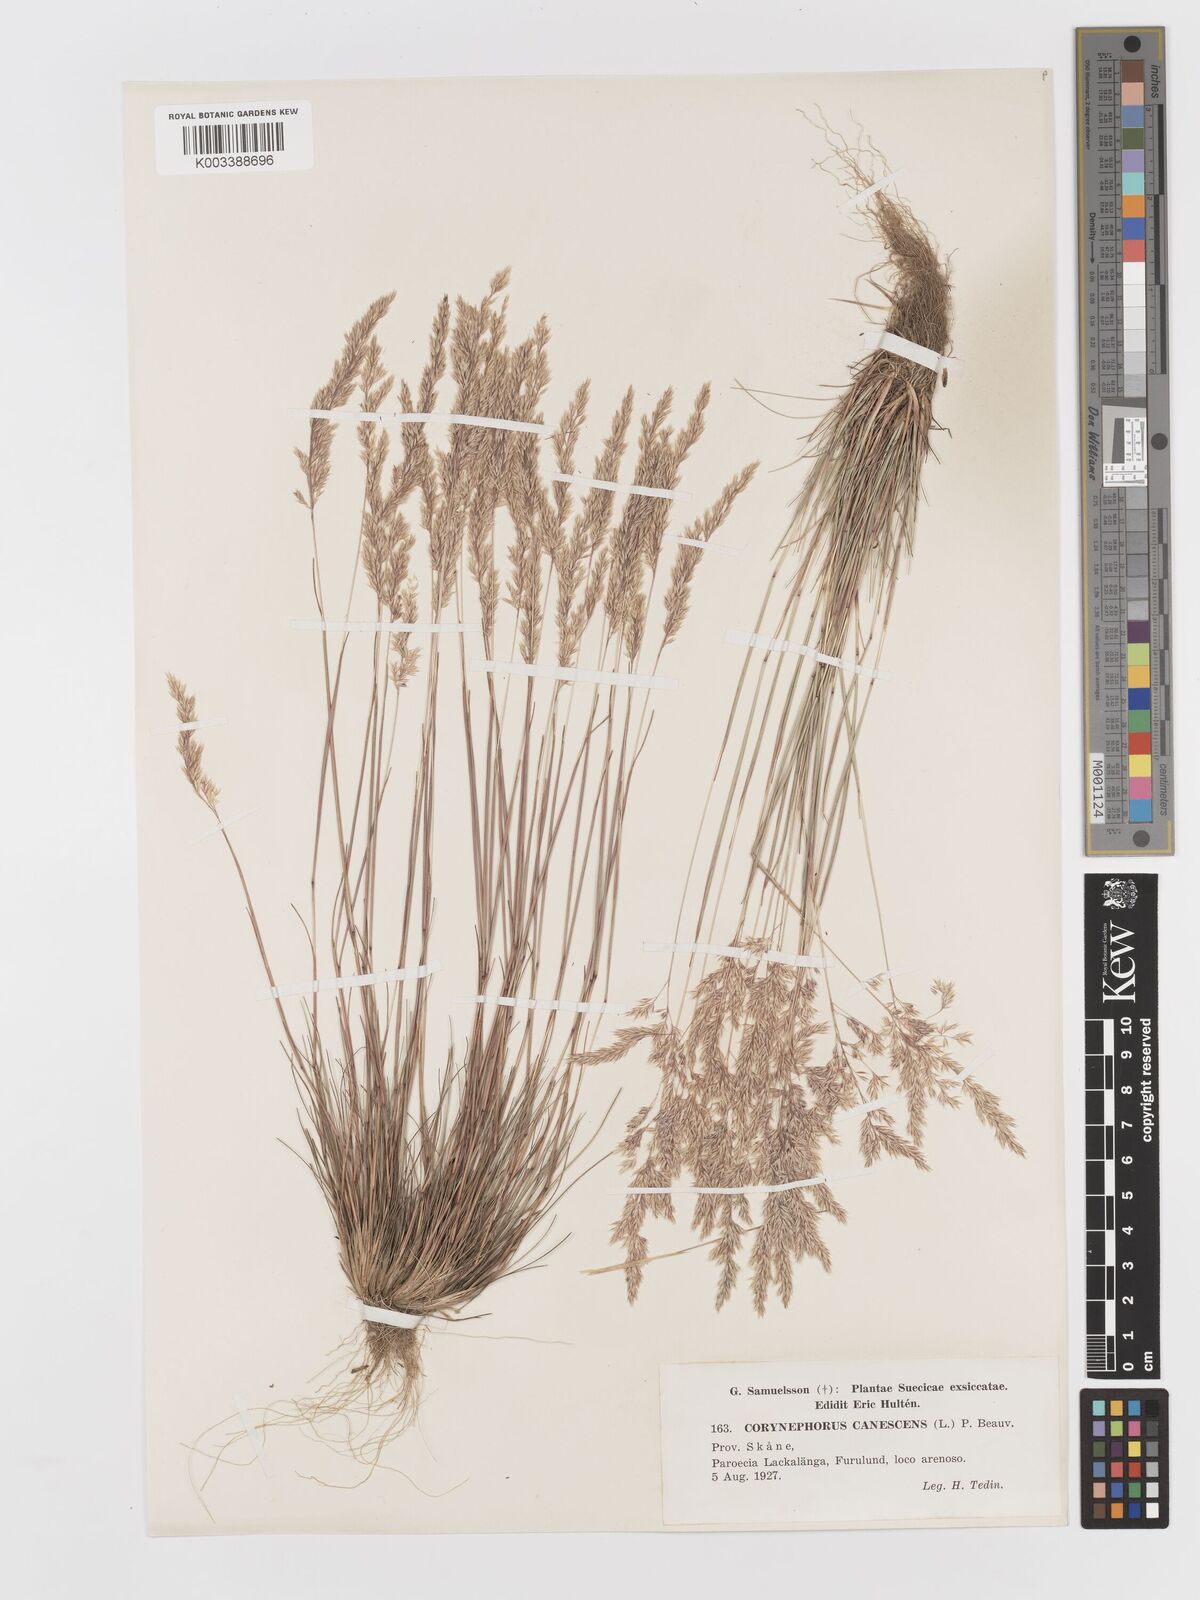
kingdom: Plantae
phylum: Tracheophyta
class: Liliopsida
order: Poales
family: Poaceae
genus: Corynephorus
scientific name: Corynephorus canescens
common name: Grey hair-grass
